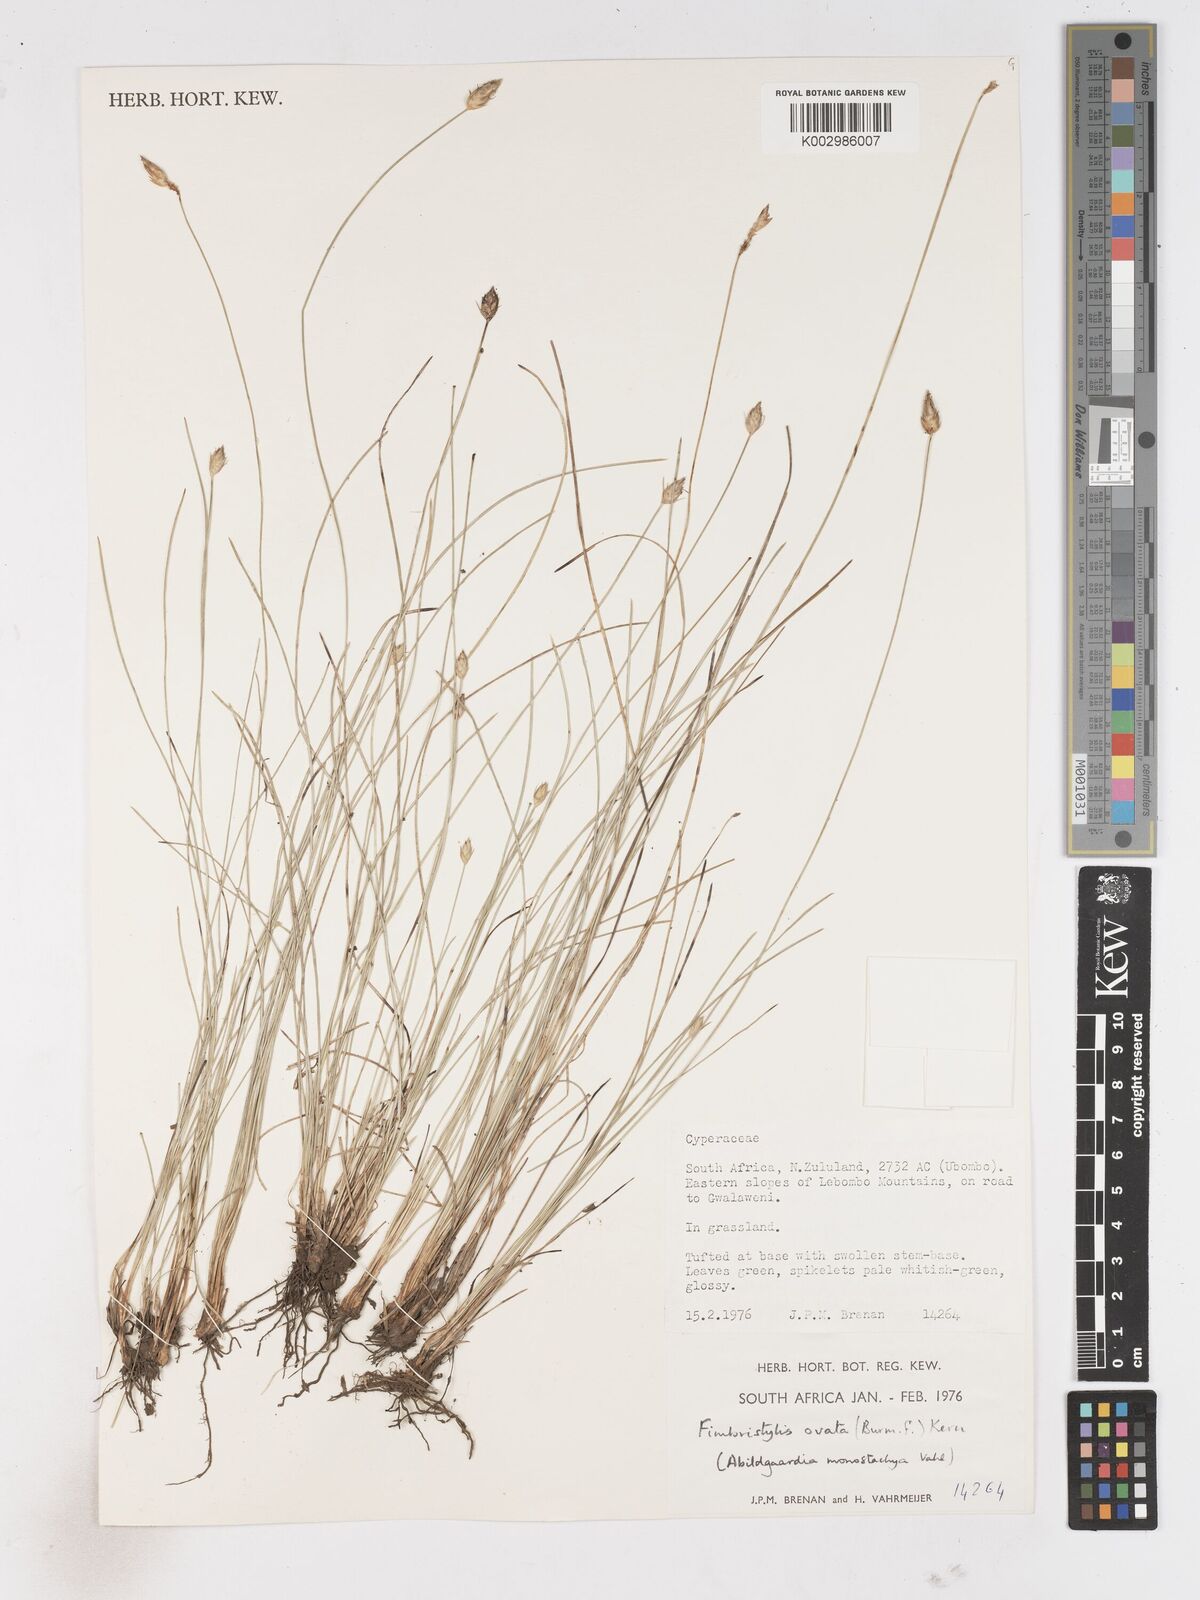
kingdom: Plantae
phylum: Tracheophyta
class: Liliopsida
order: Poales
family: Cyperaceae
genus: Abildgaardia
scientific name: Abildgaardia ovata
